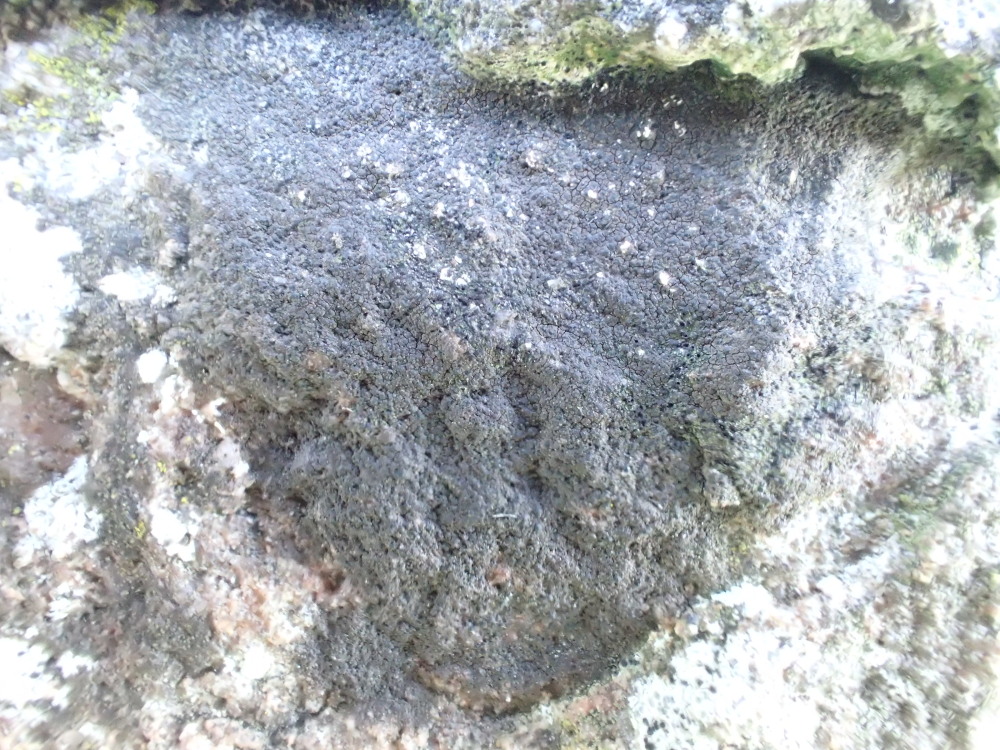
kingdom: Fungi
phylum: Ascomycota
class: Eurotiomycetes
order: Verrucariales
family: Verrucariaceae
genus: Verrucaria
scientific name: Verrucaria nigrescens
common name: sortbrun vortelav
